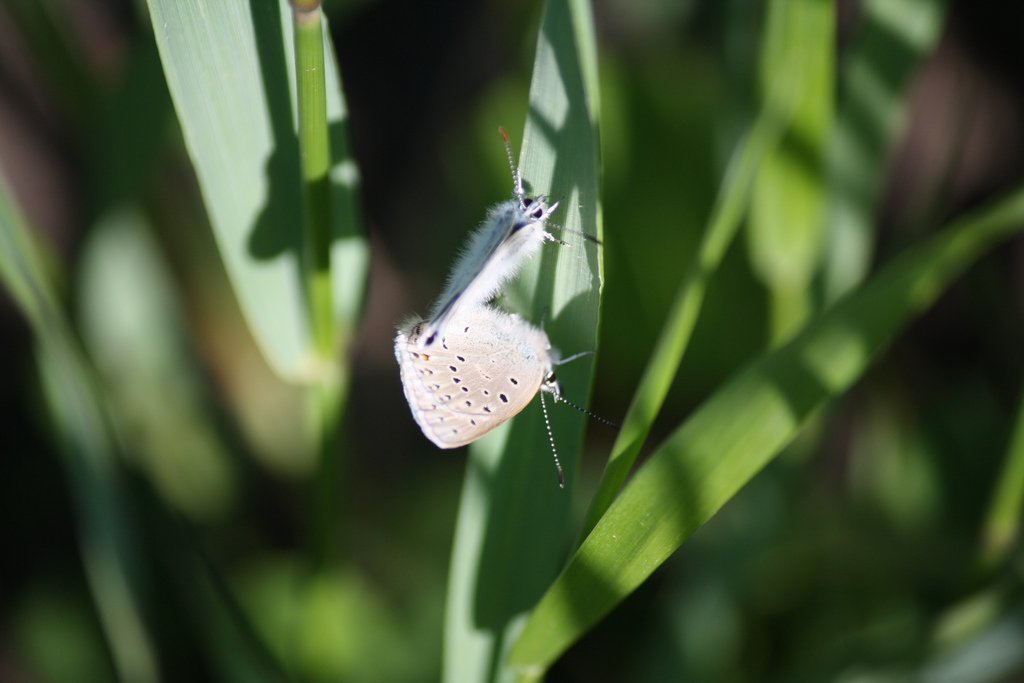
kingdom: Animalia
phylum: Arthropoda
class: Insecta
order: Lepidoptera
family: Lycaenidae
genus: Plebejus
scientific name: Plebejus saepiolus
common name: Greenish Blue
